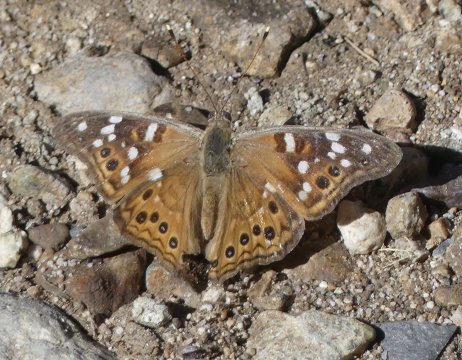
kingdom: Animalia
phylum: Arthropoda
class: Insecta
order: Lepidoptera
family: Nymphalidae
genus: Asterocampa
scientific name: Asterocampa leilia
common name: Empress Leilia
